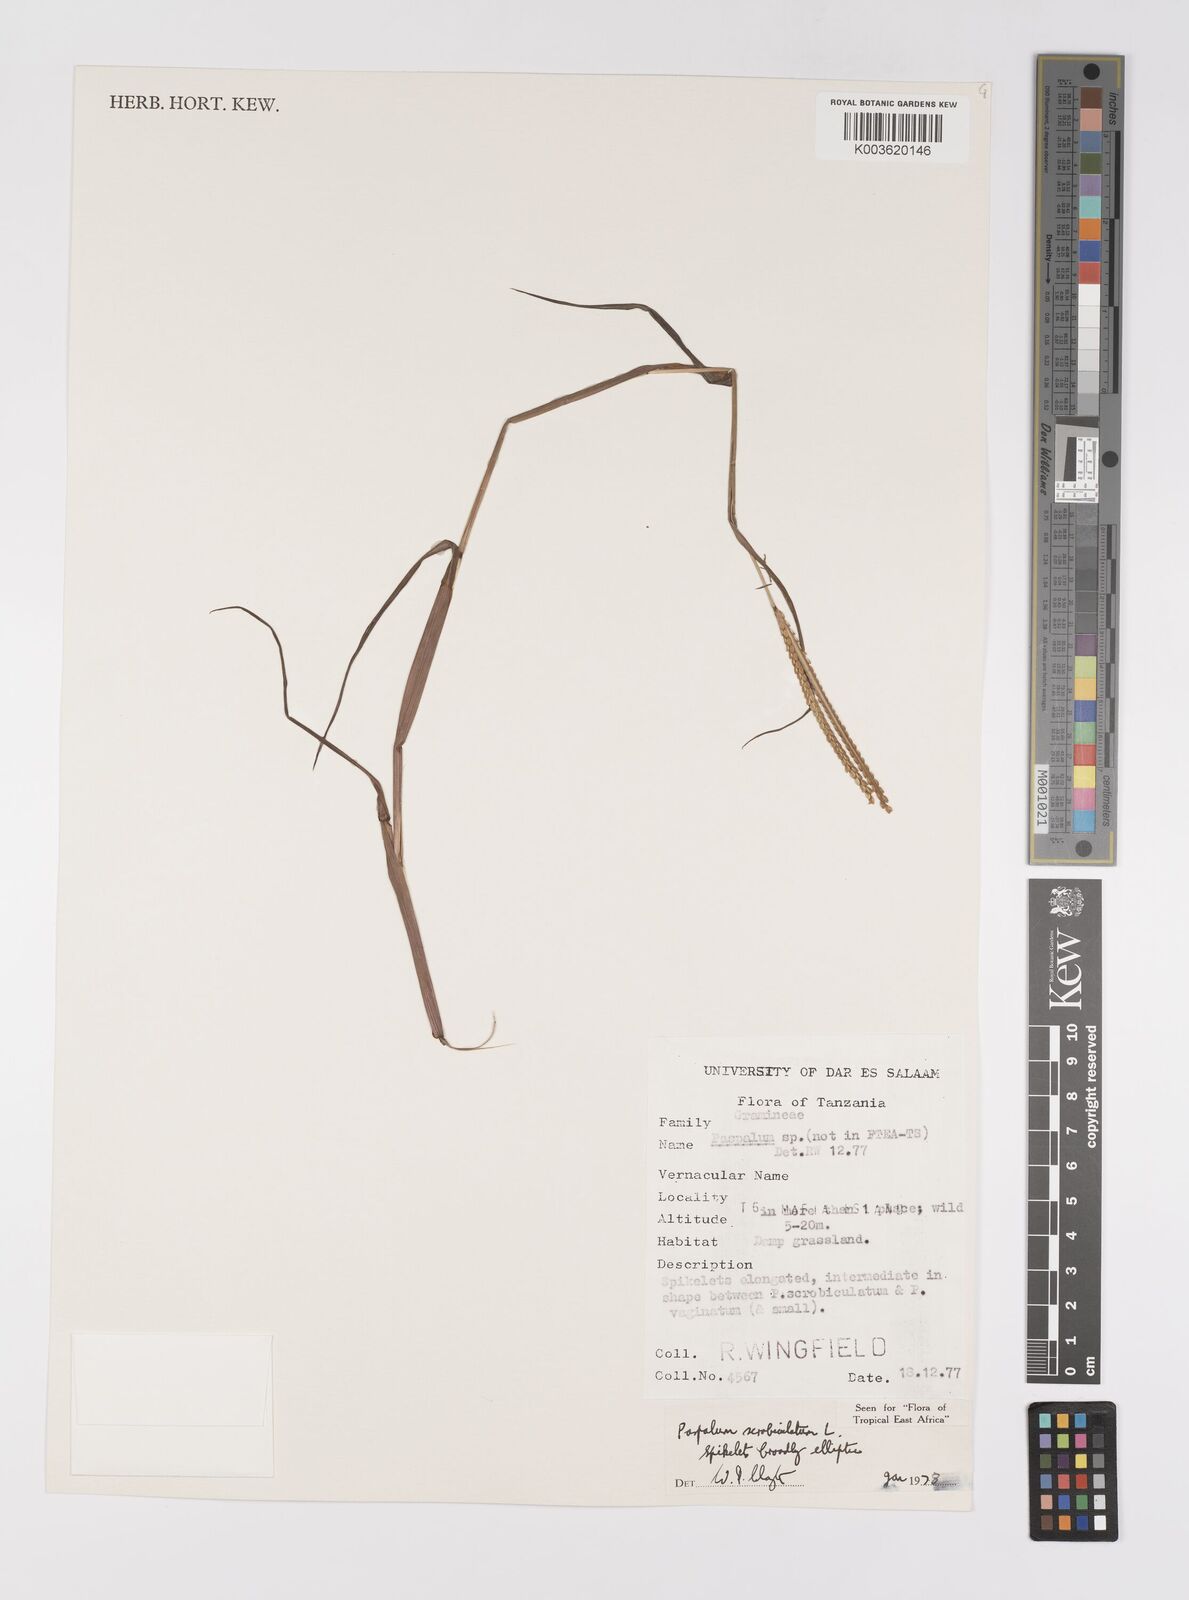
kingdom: Plantae
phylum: Tracheophyta
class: Liliopsida
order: Poales
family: Poaceae
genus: Paspalum
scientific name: Paspalum scrobiculatum
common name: Kodo millet
